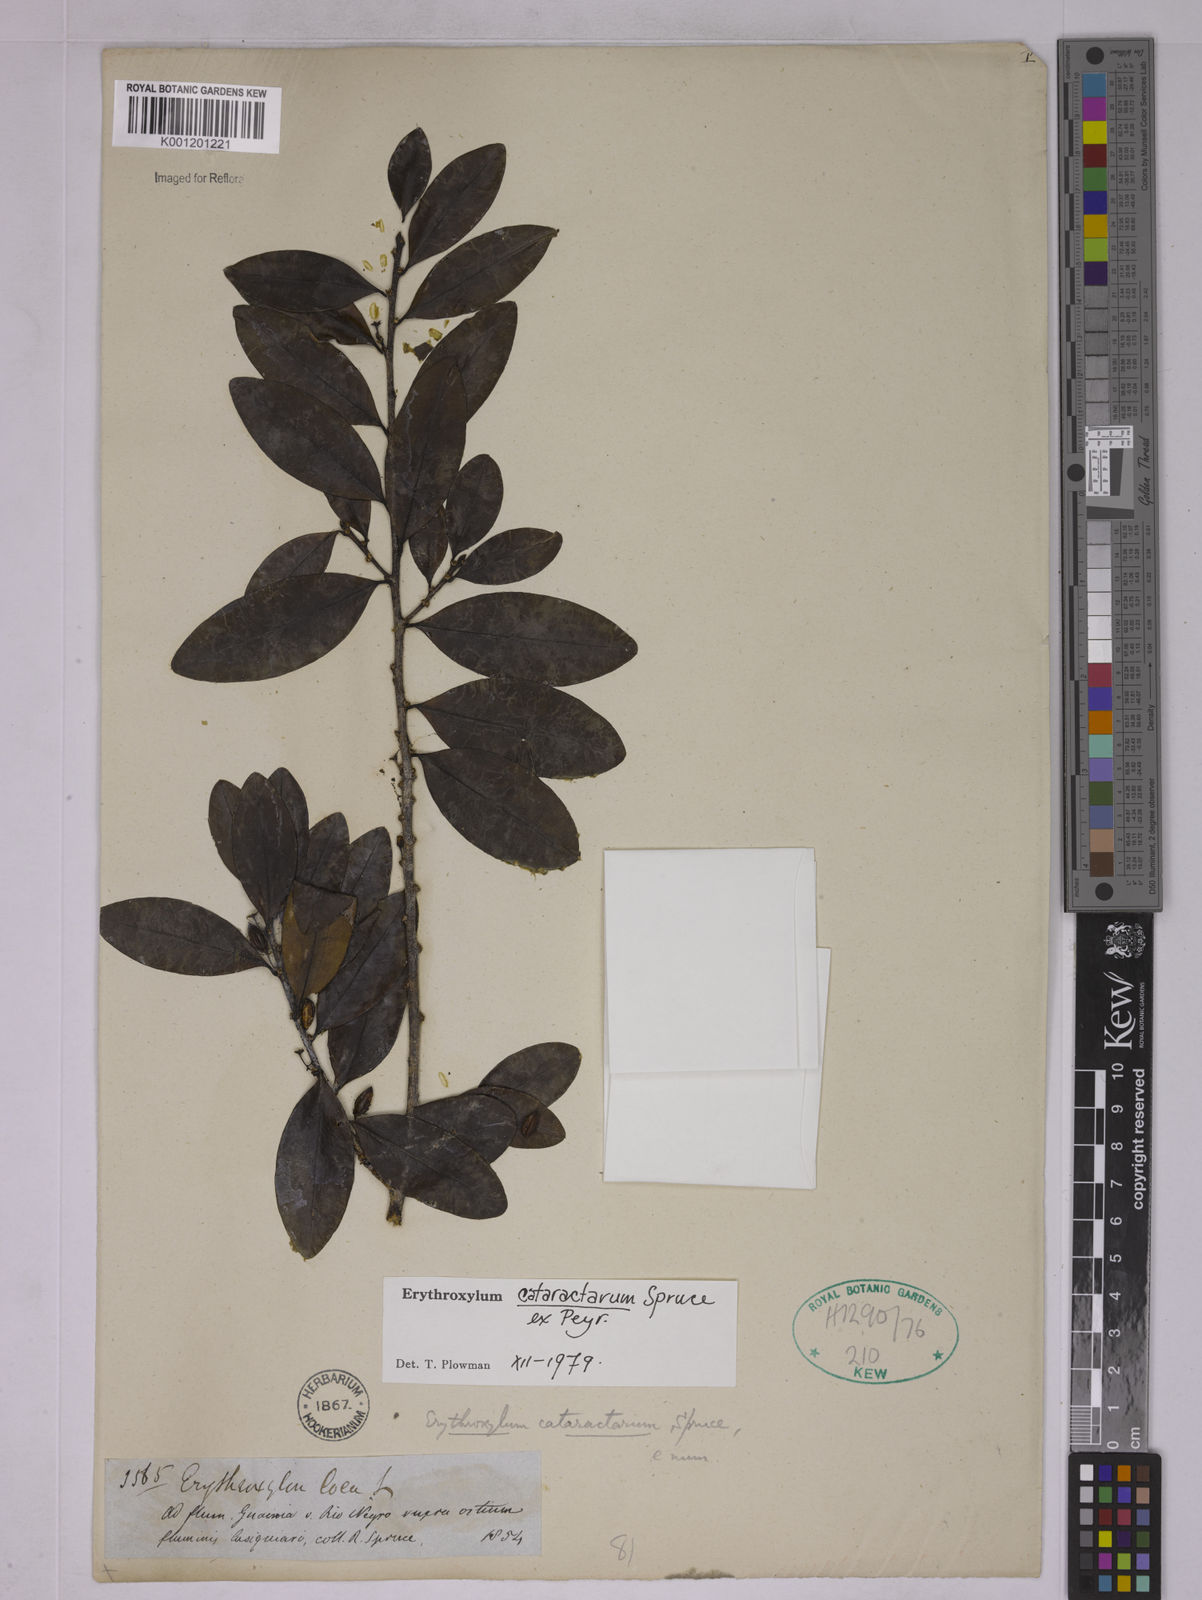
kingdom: Plantae
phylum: Tracheophyta
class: Magnoliopsida
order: Malpighiales
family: Erythroxylaceae
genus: Erythroxylum
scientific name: Erythroxylum cataractarum
